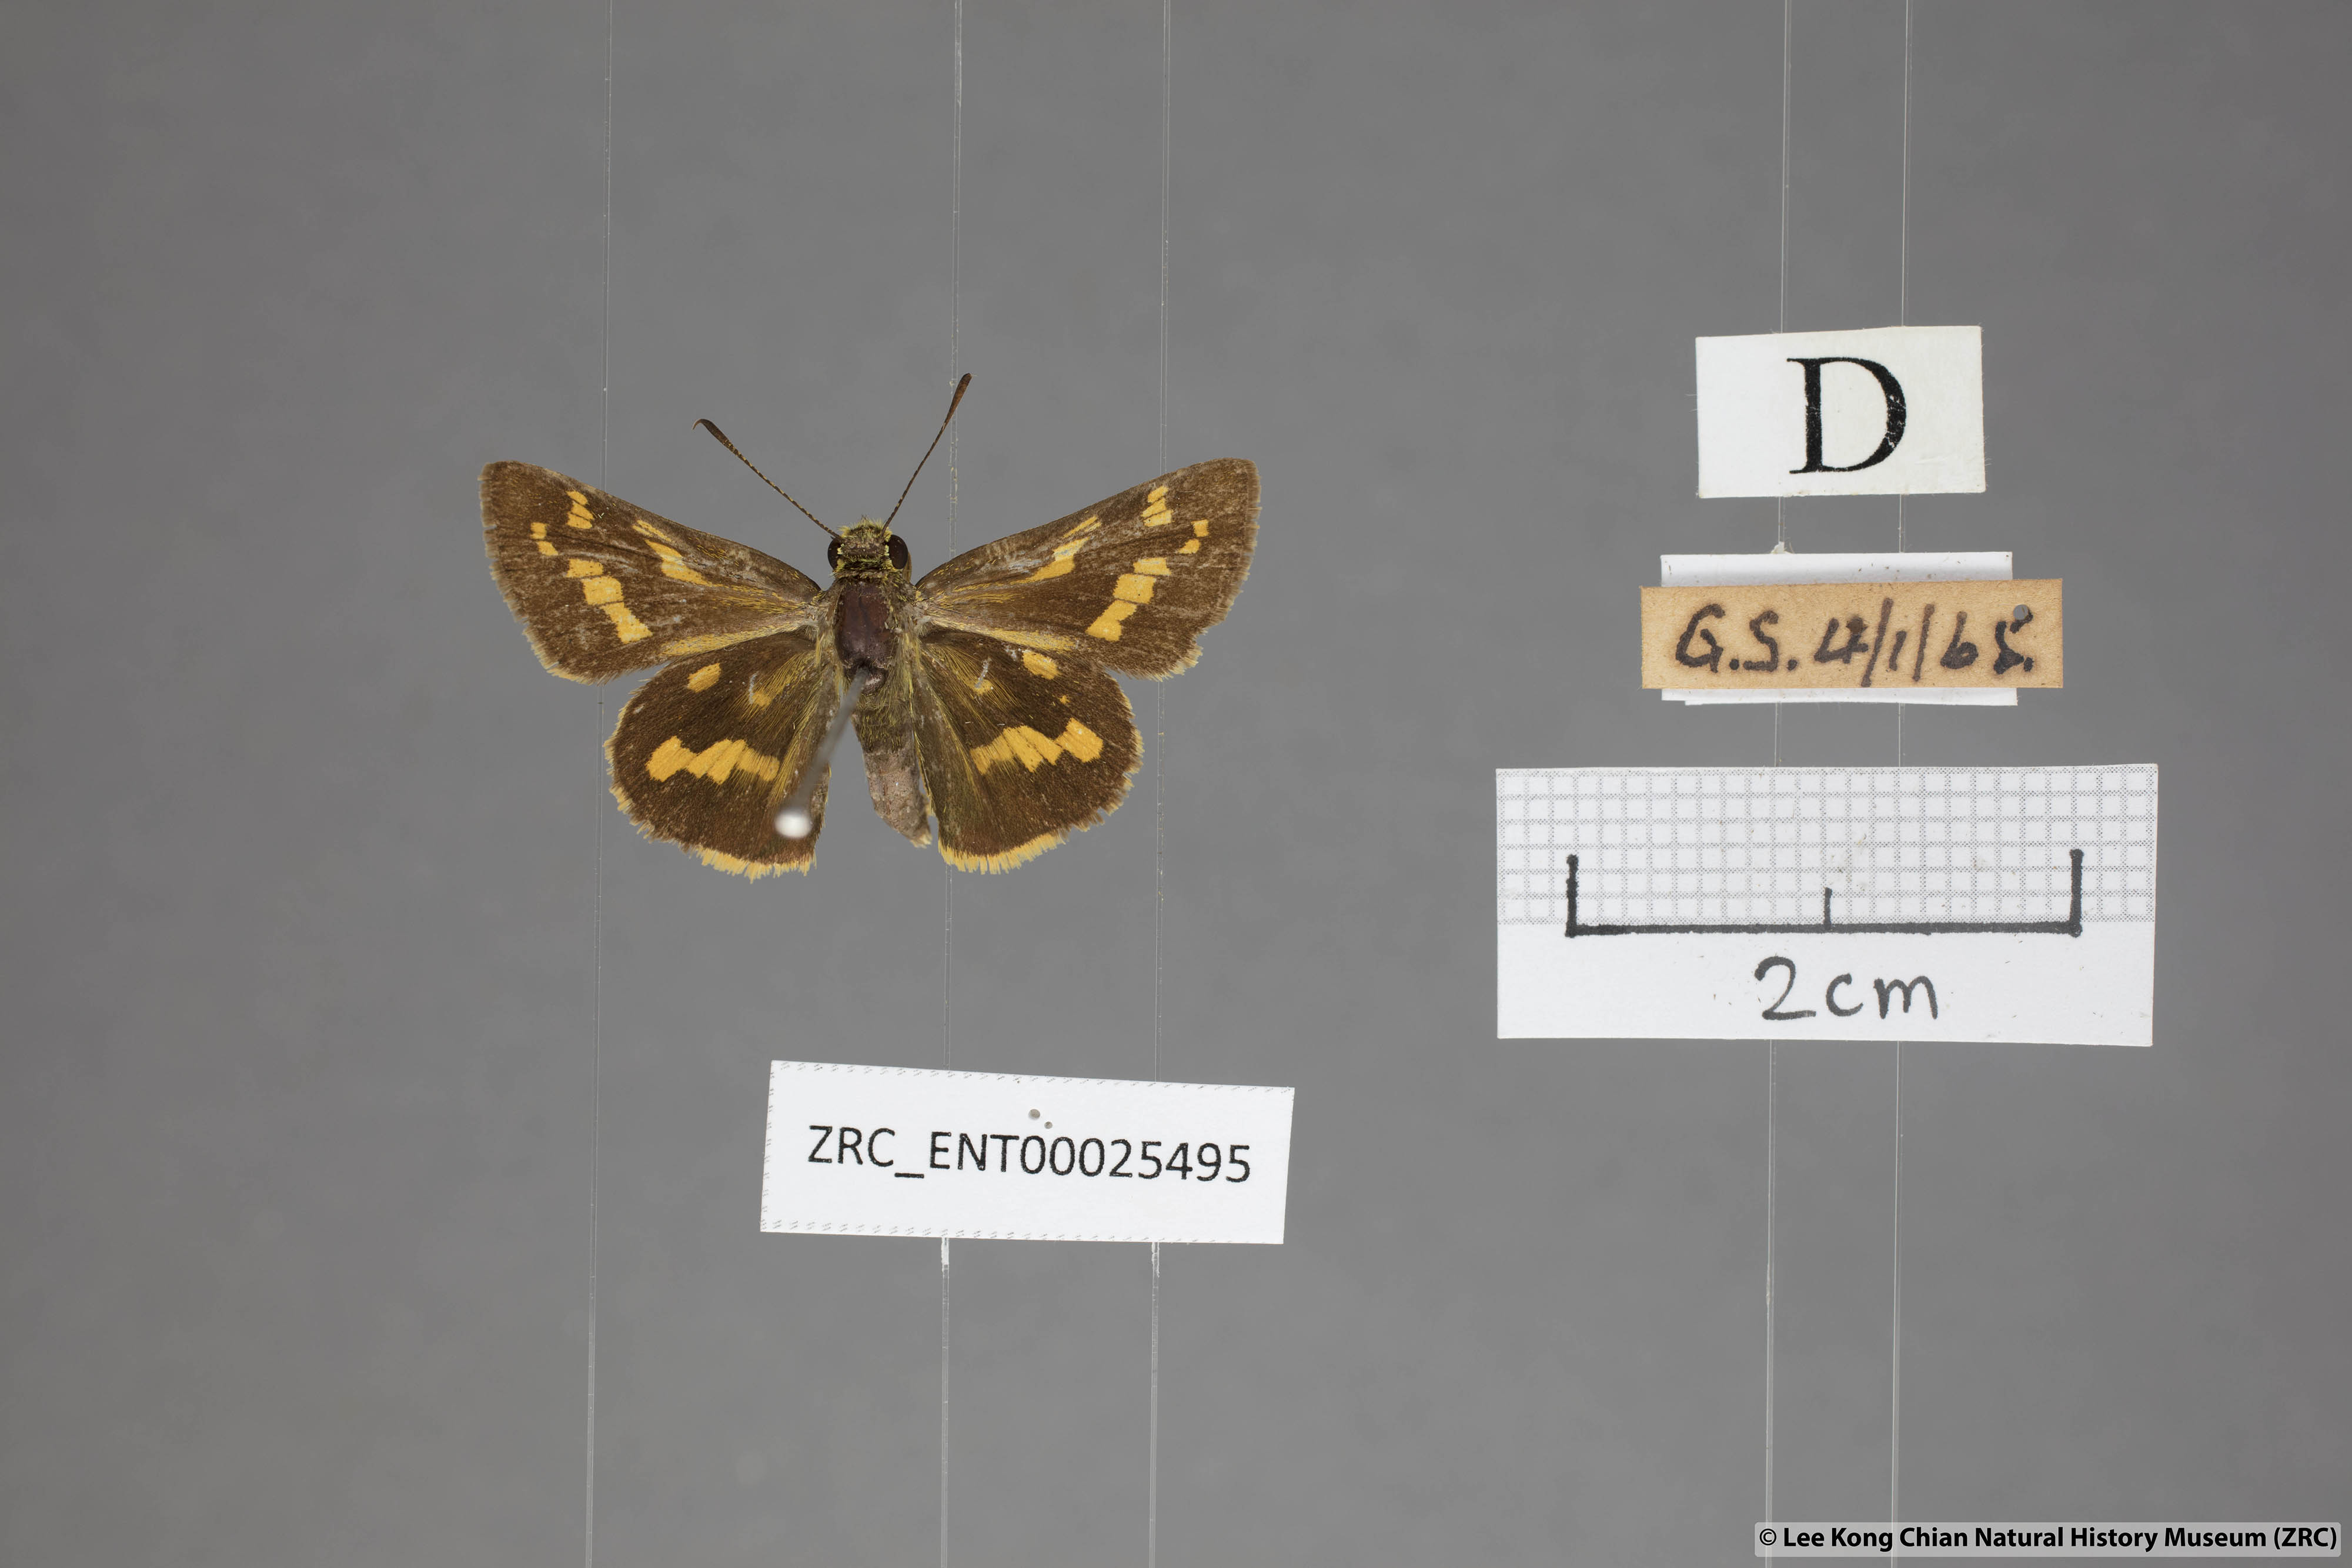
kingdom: Animalia
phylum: Arthropoda
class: Insecta
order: Lepidoptera
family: Hesperiidae
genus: Potanthus
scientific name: Potanthus trachala
